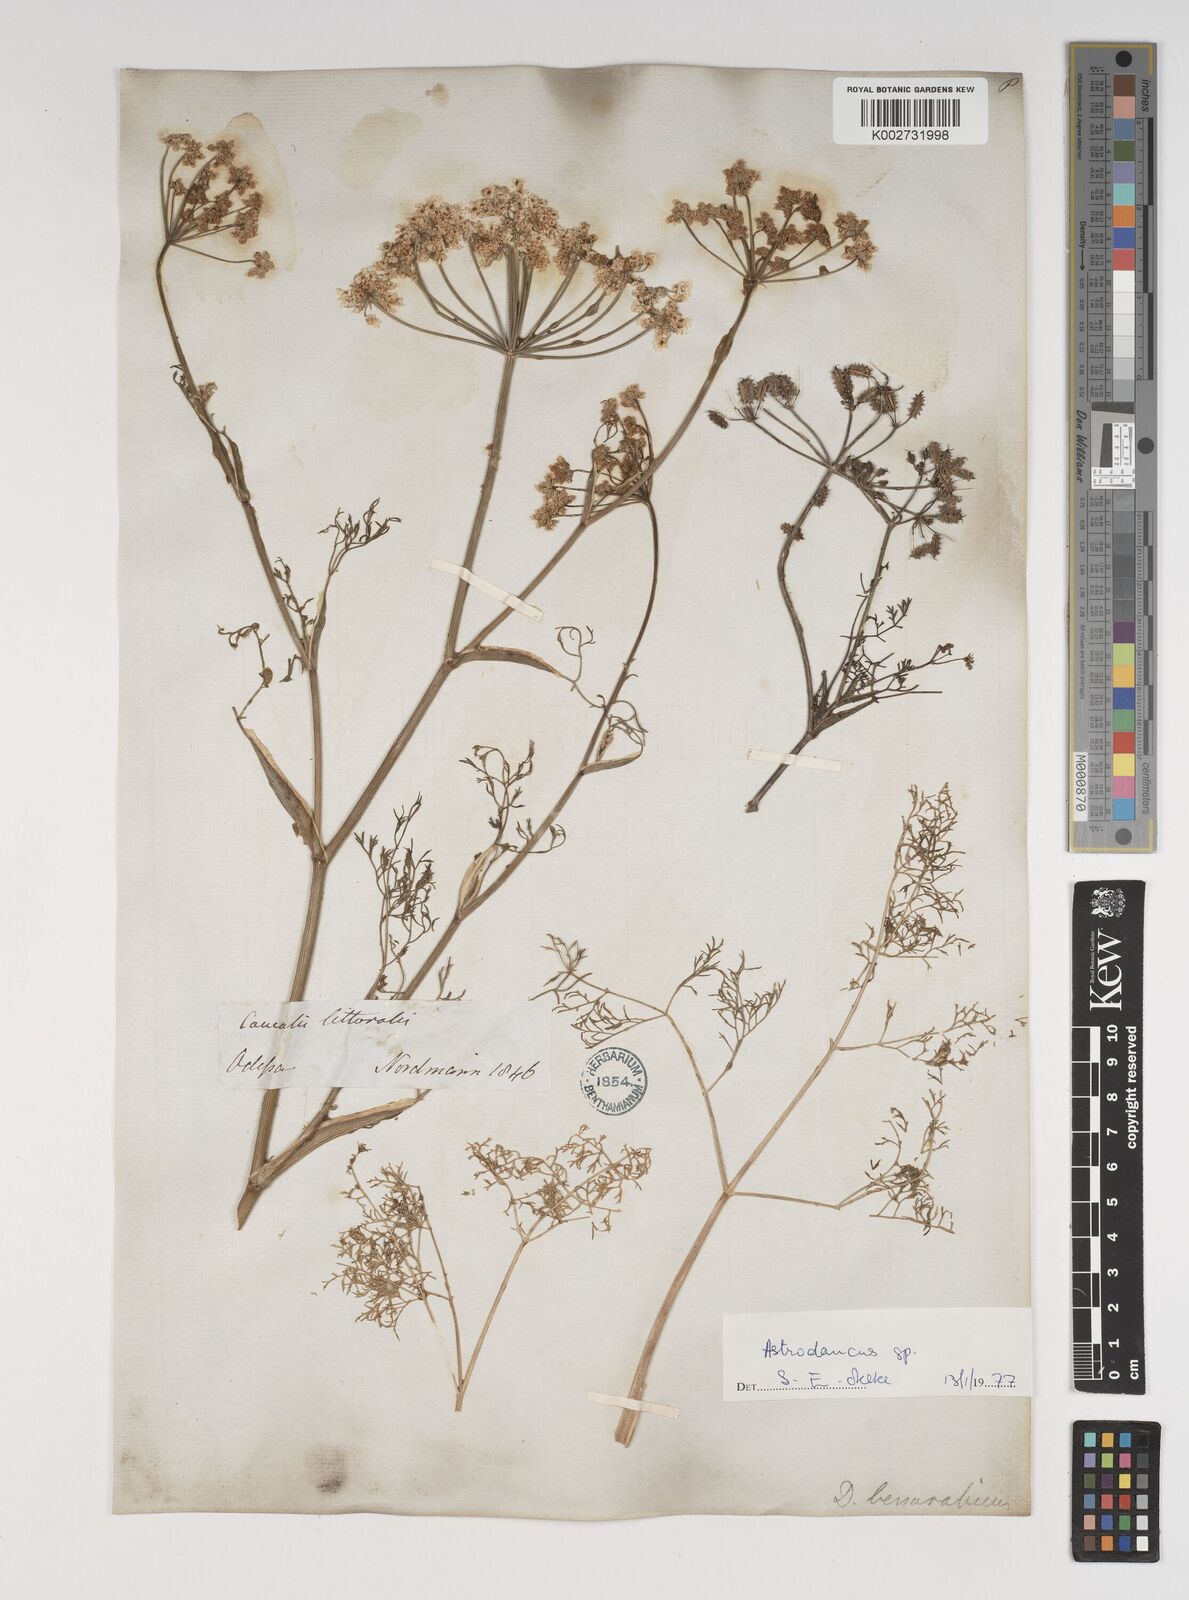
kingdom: Plantae
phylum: Tracheophyta
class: Magnoliopsida
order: Apiales
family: Apiaceae
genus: Astrodaucus
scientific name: Astrodaucus littoralis
